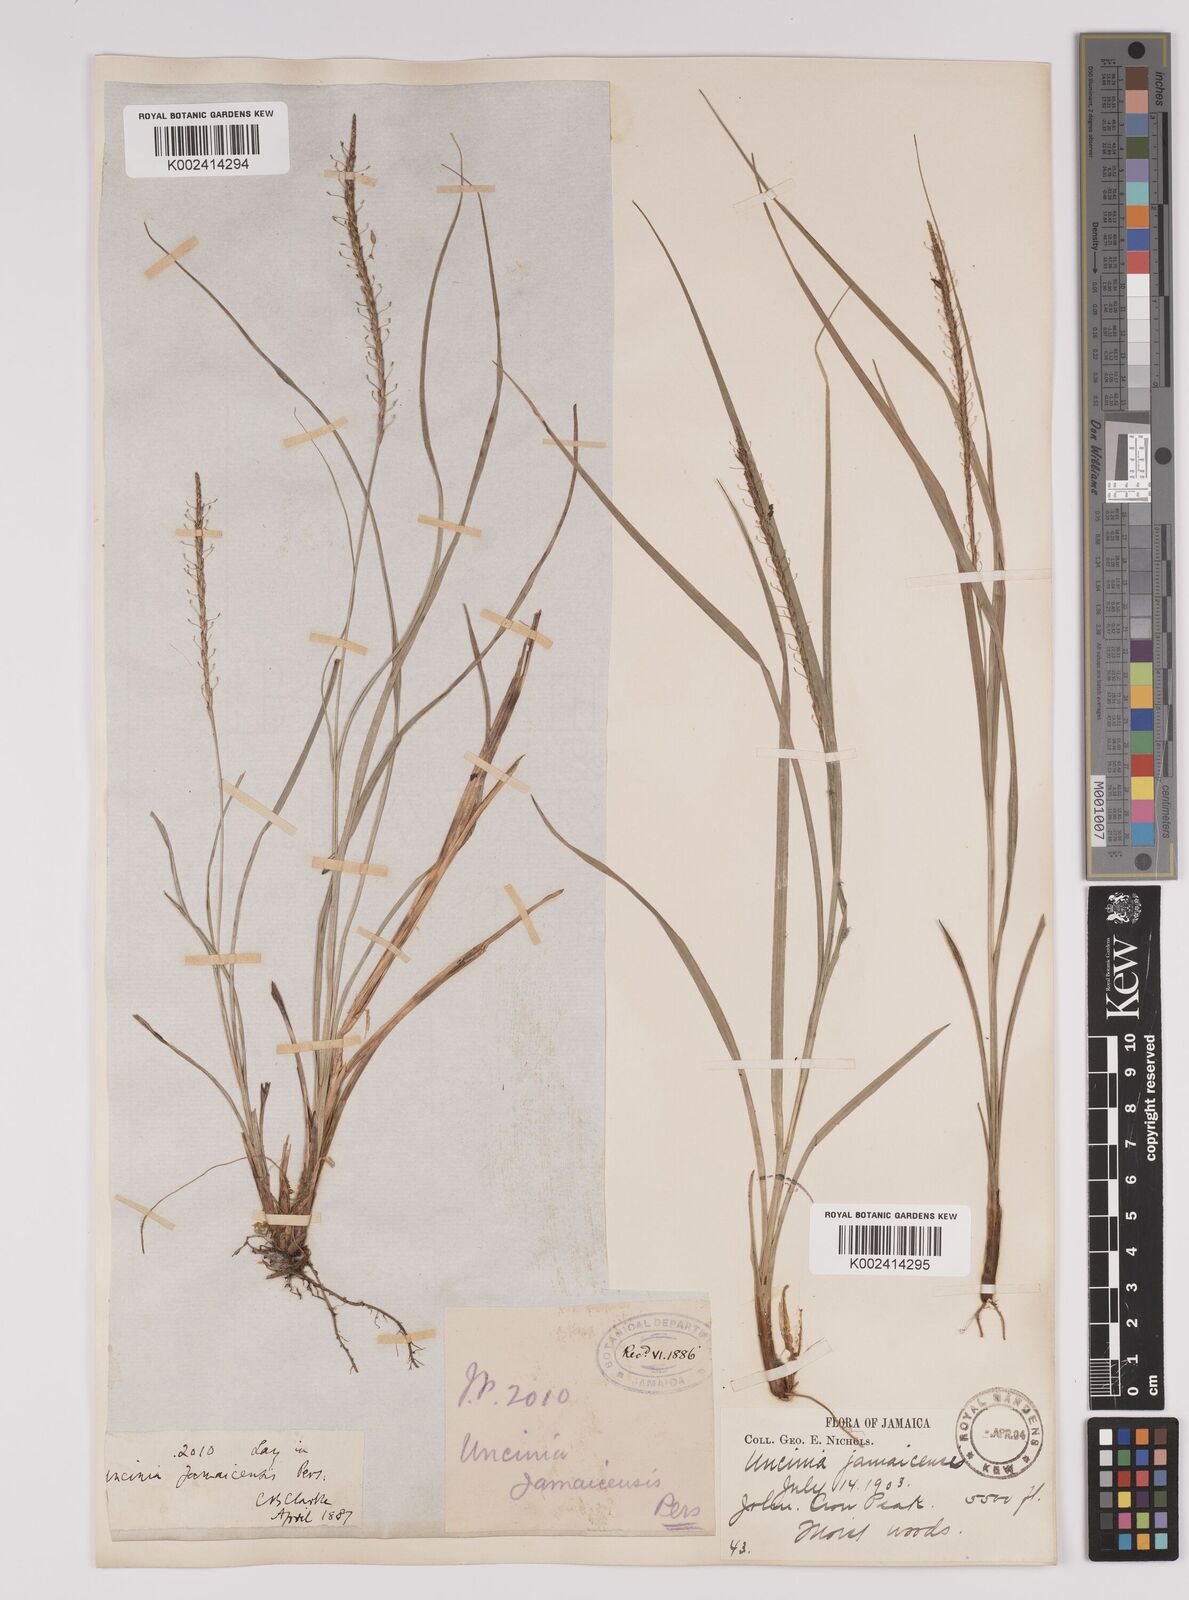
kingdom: Plantae
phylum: Tracheophyta
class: Liliopsida
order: Poales
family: Cyperaceae
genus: Carex
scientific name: Carex hamata
